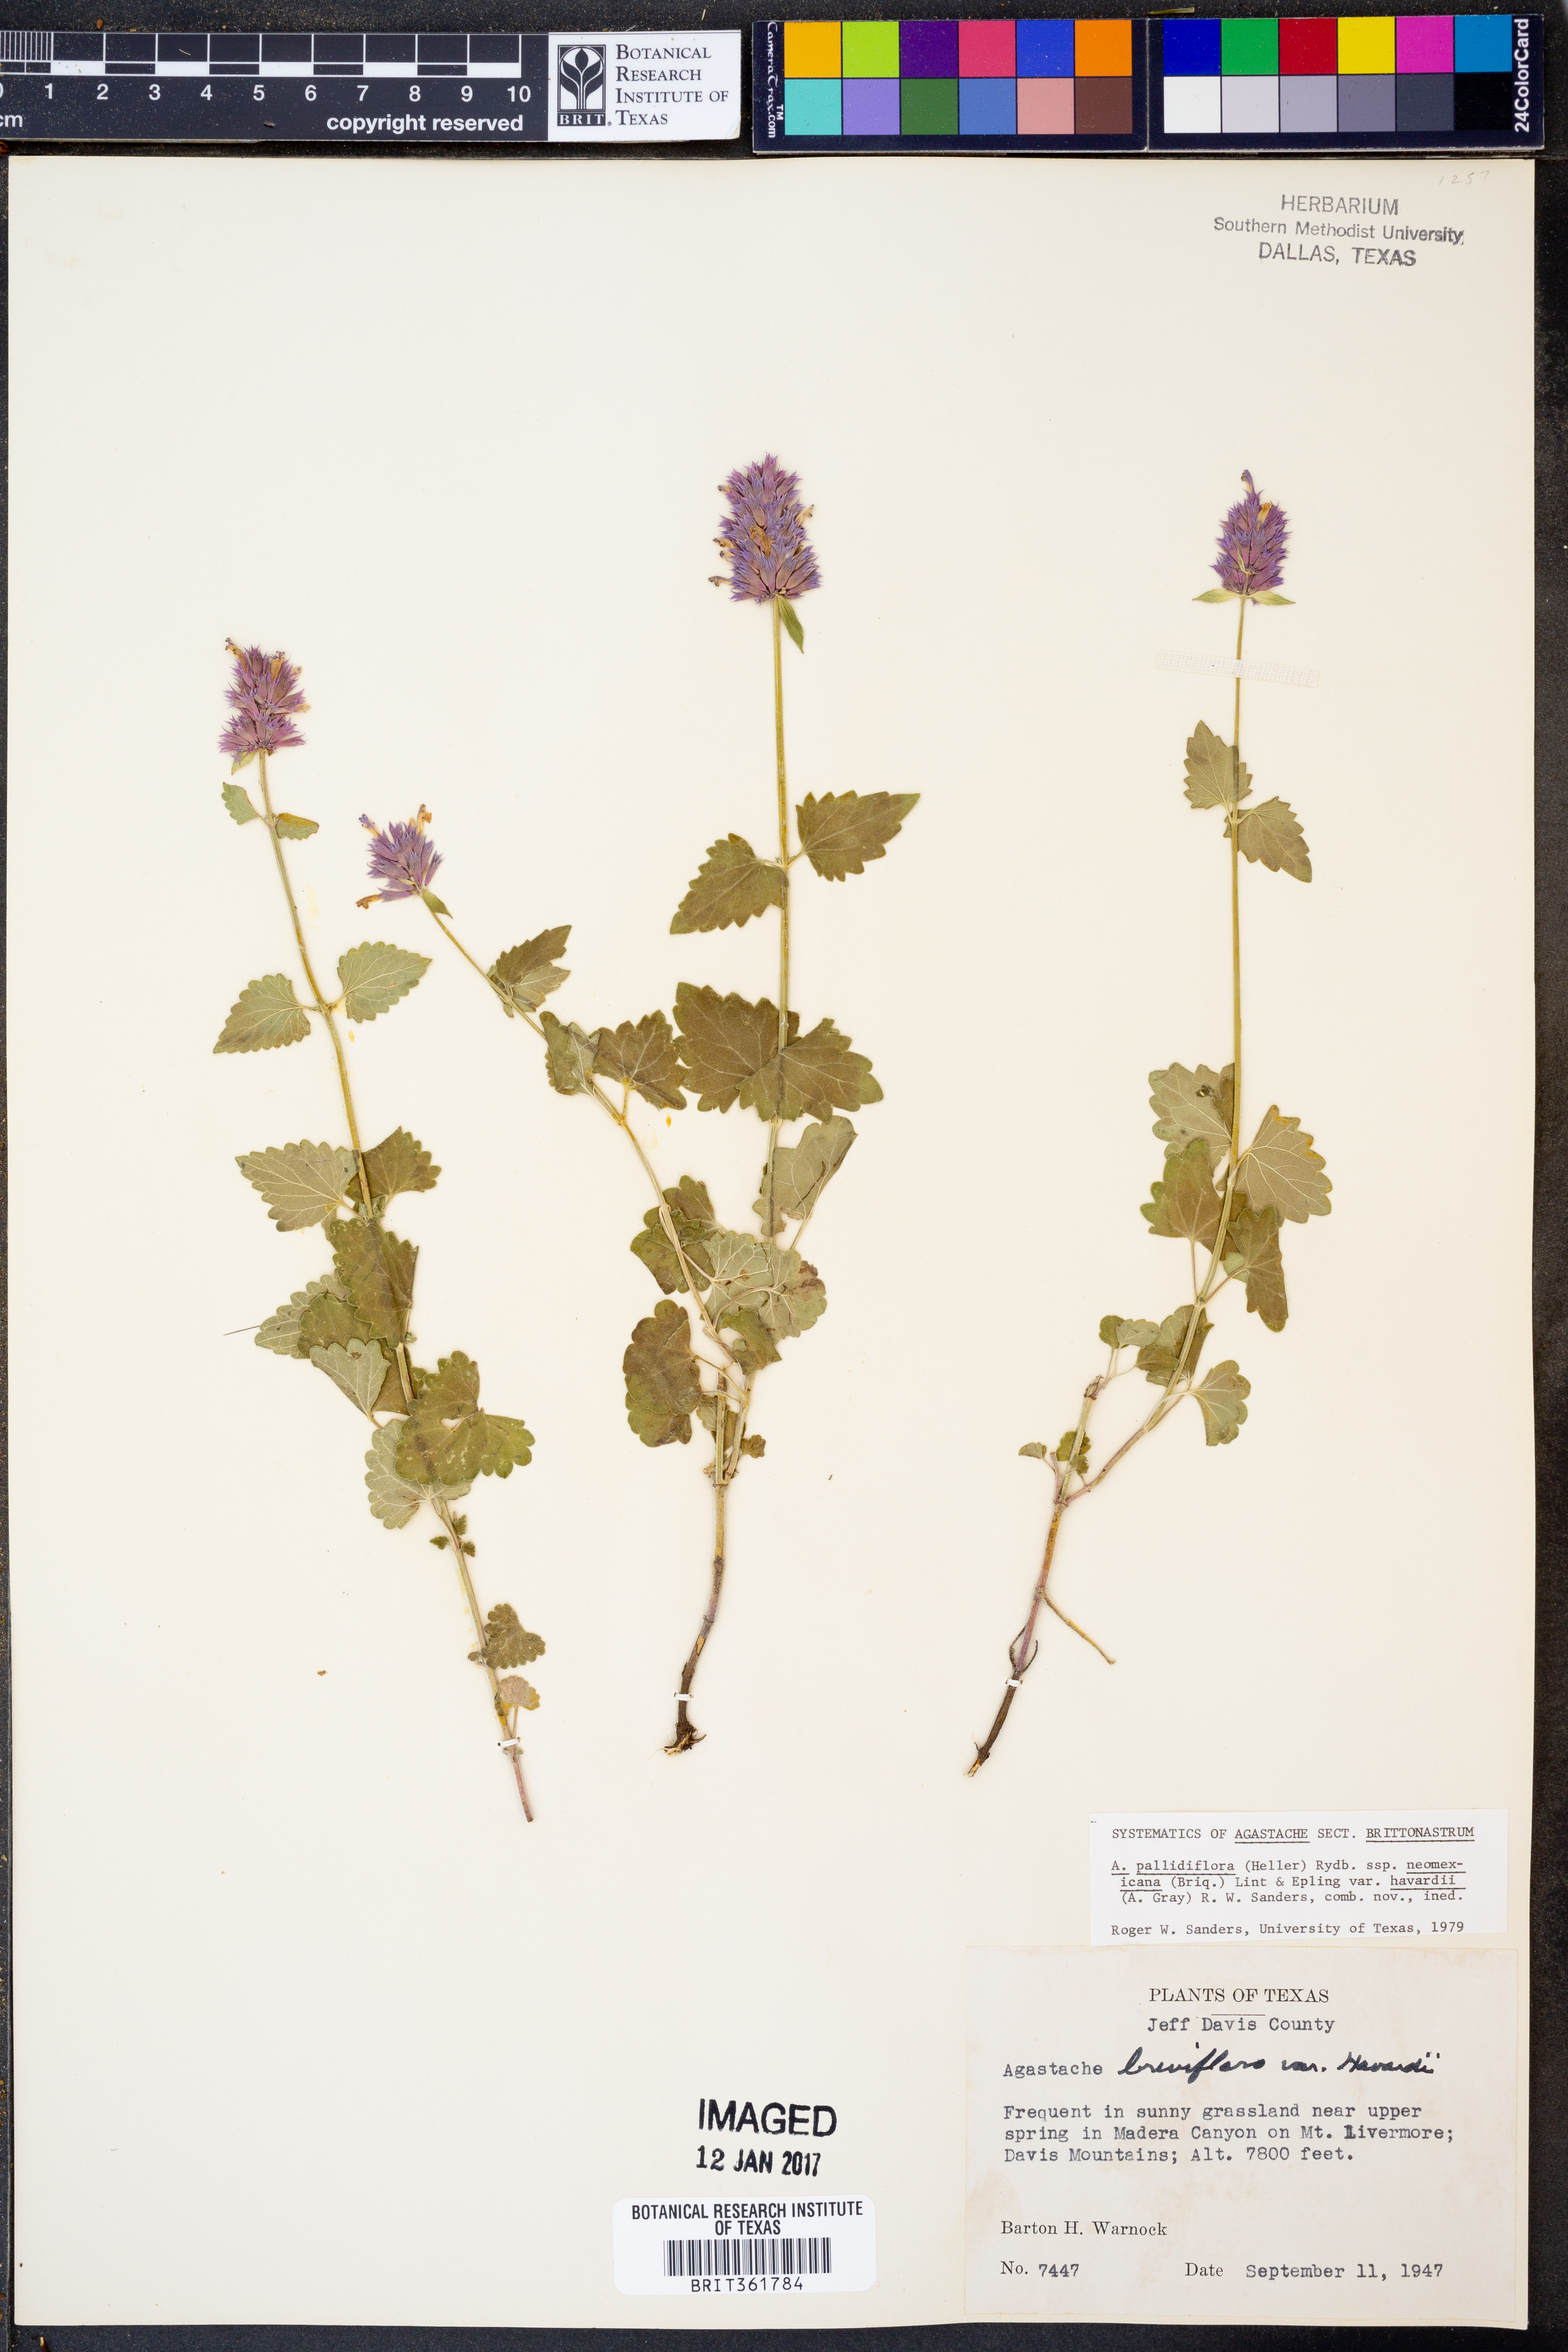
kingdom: Plantae
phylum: Tracheophyta
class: Magnoliopsida
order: Lamiales
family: Lamiaceae
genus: Agastache
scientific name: Agastache pallidiflora
